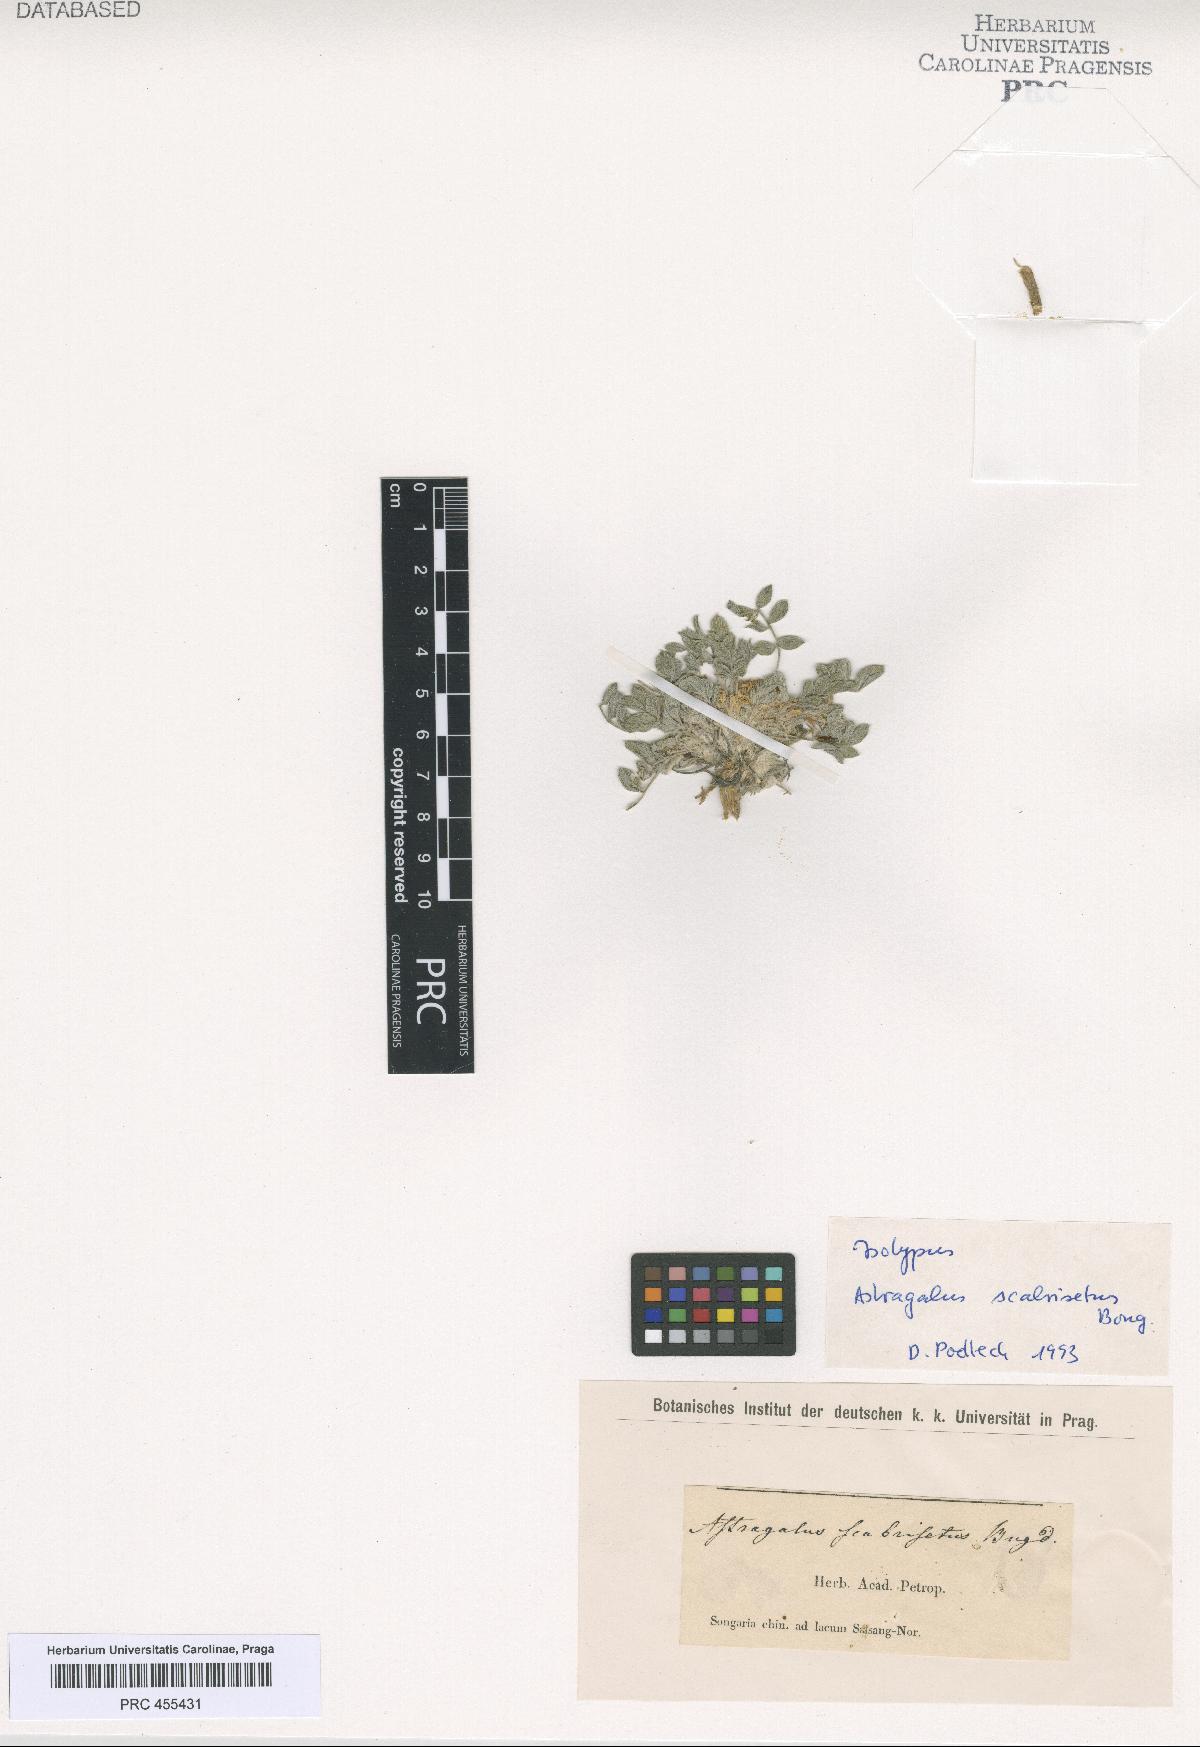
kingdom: Plantae
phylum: Tracheophyta
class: Magnoliopsida
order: Fabales
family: Fabaceae
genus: Astragalus
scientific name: Astragalus scabrisetus
